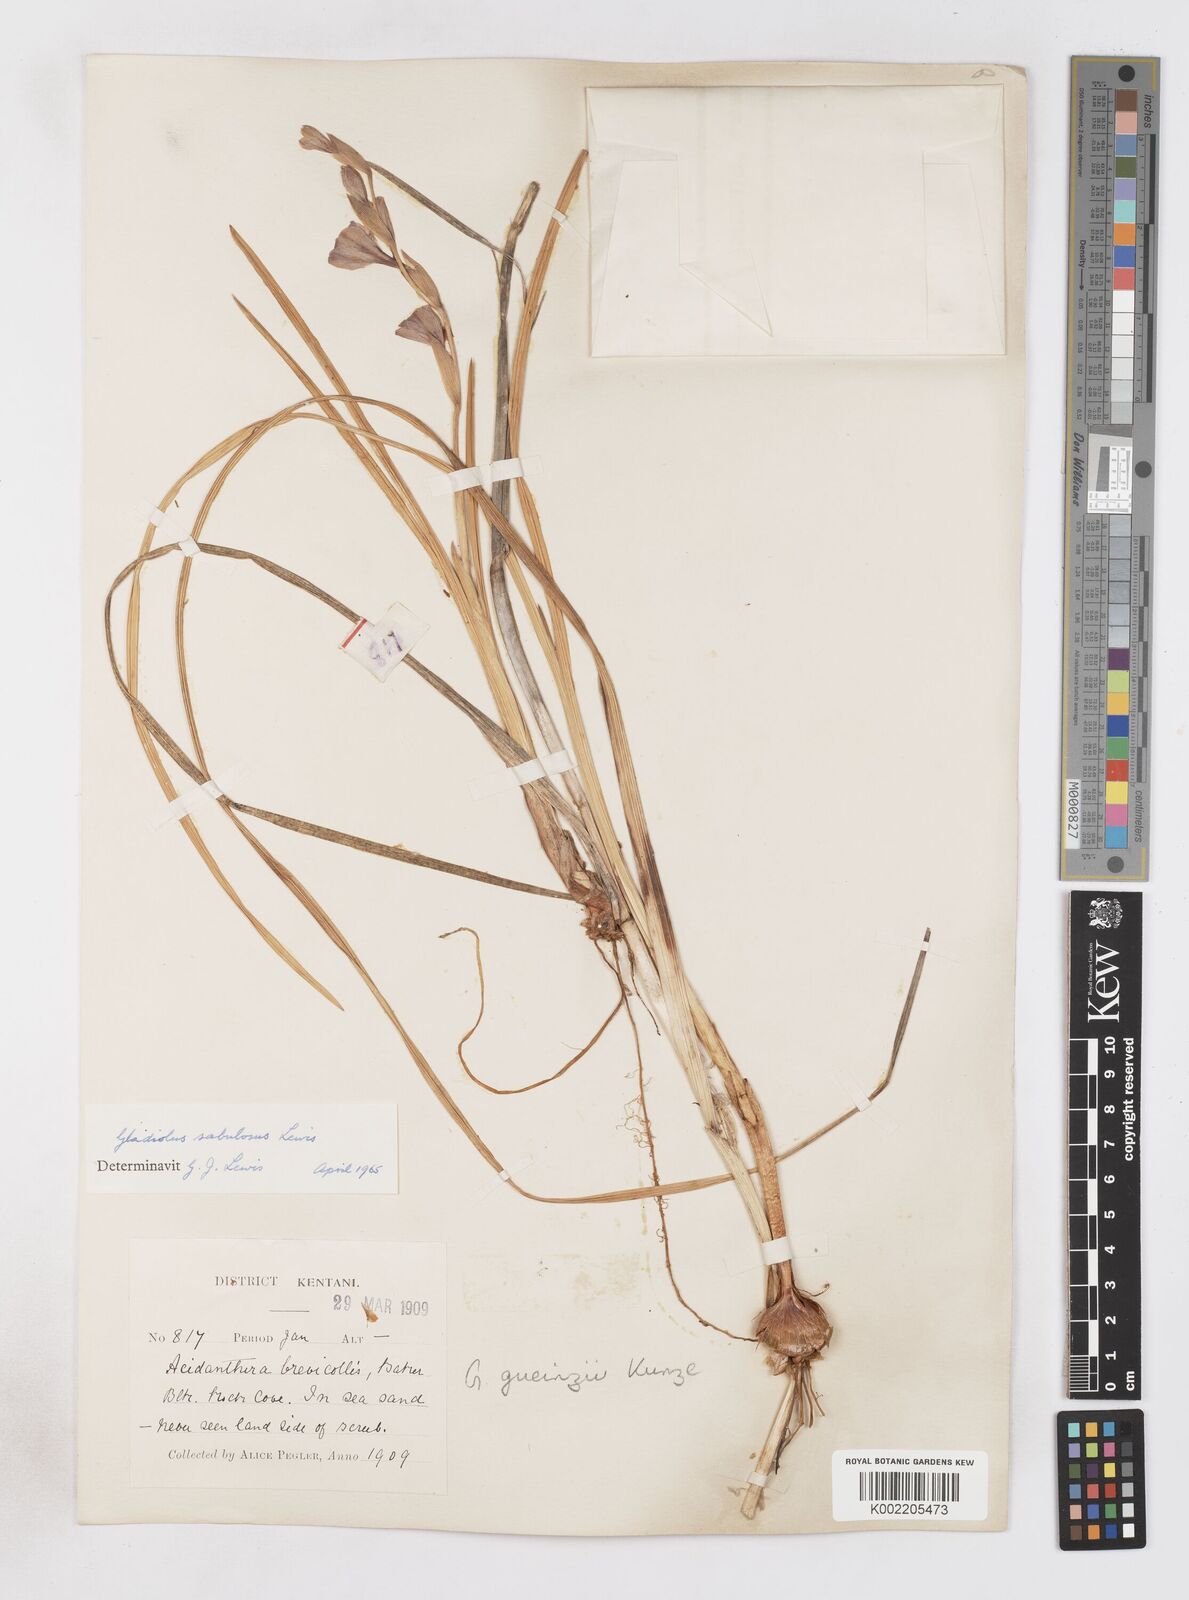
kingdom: Plantae
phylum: Tracheophyta
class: Liliopsida
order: Asparagales
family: Iridaceae
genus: Gladiolus
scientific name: Gladiolus gueinzii
